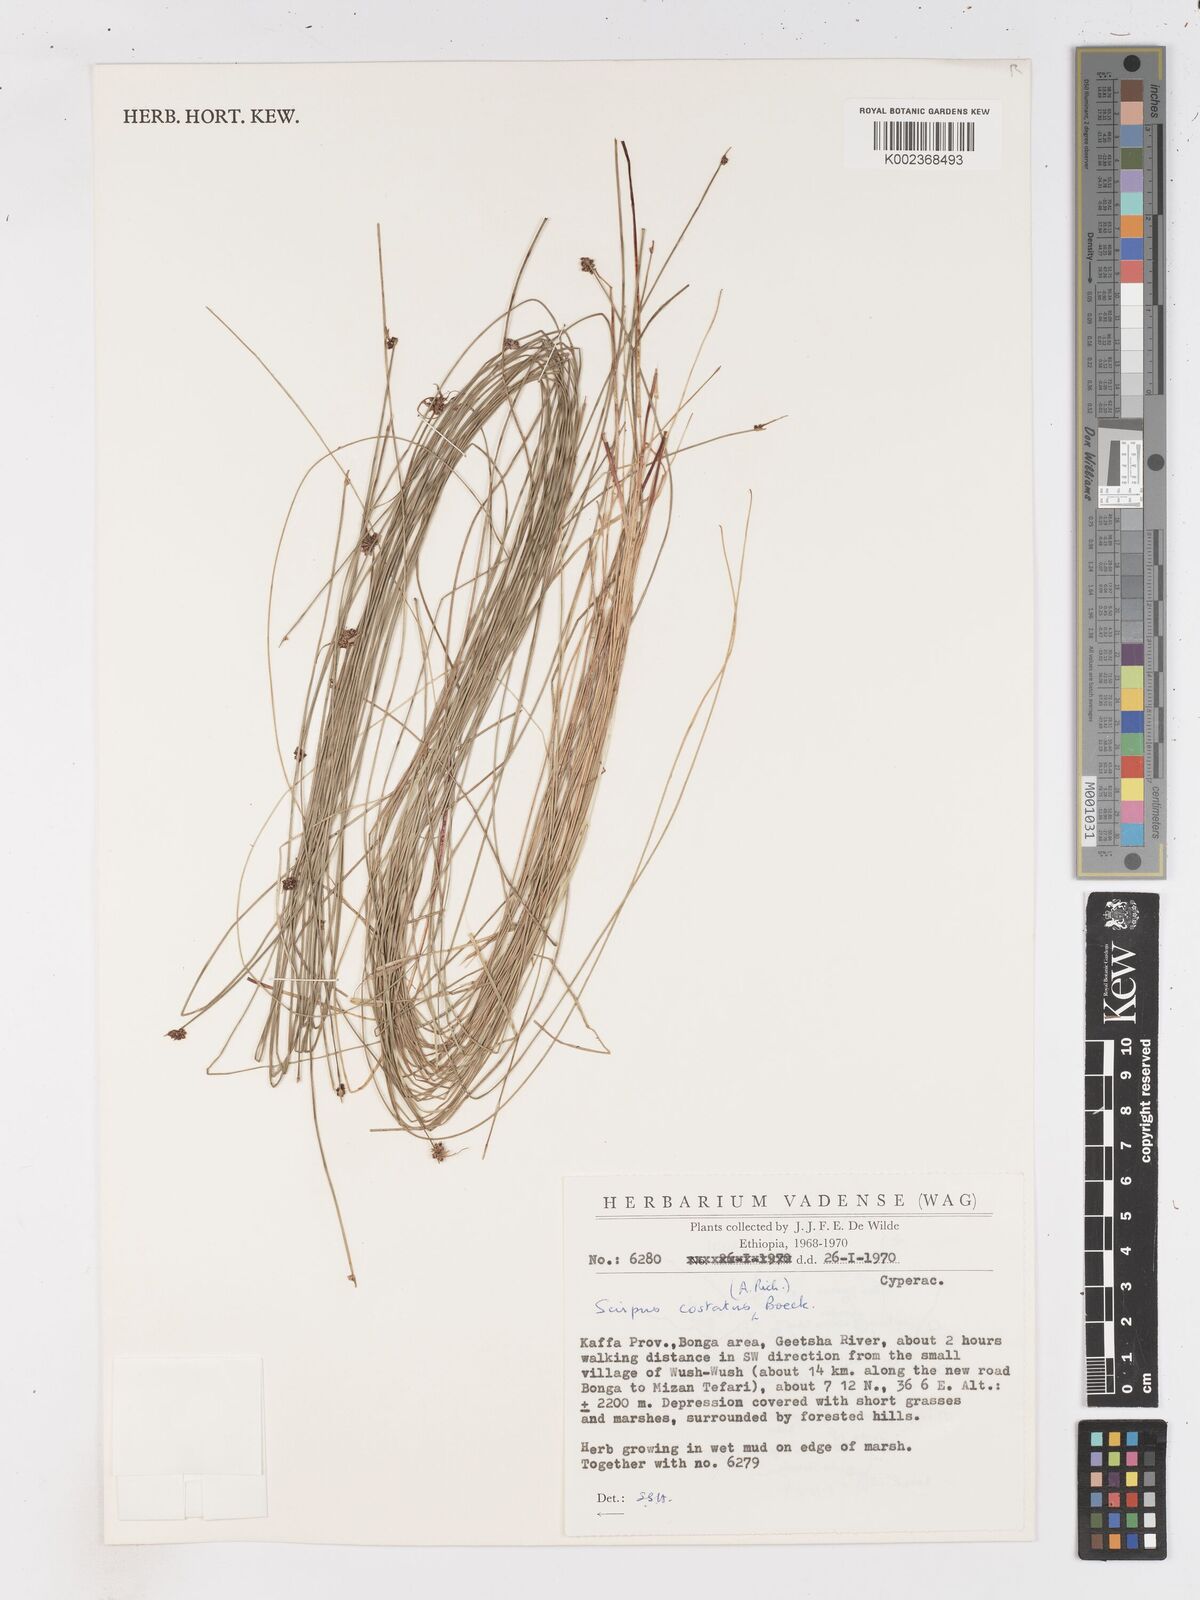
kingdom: Plantae
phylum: Tracheophyta
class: Liliopsida
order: Poales
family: Cyperaceae
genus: Isolepis
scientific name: Isolepis costata
